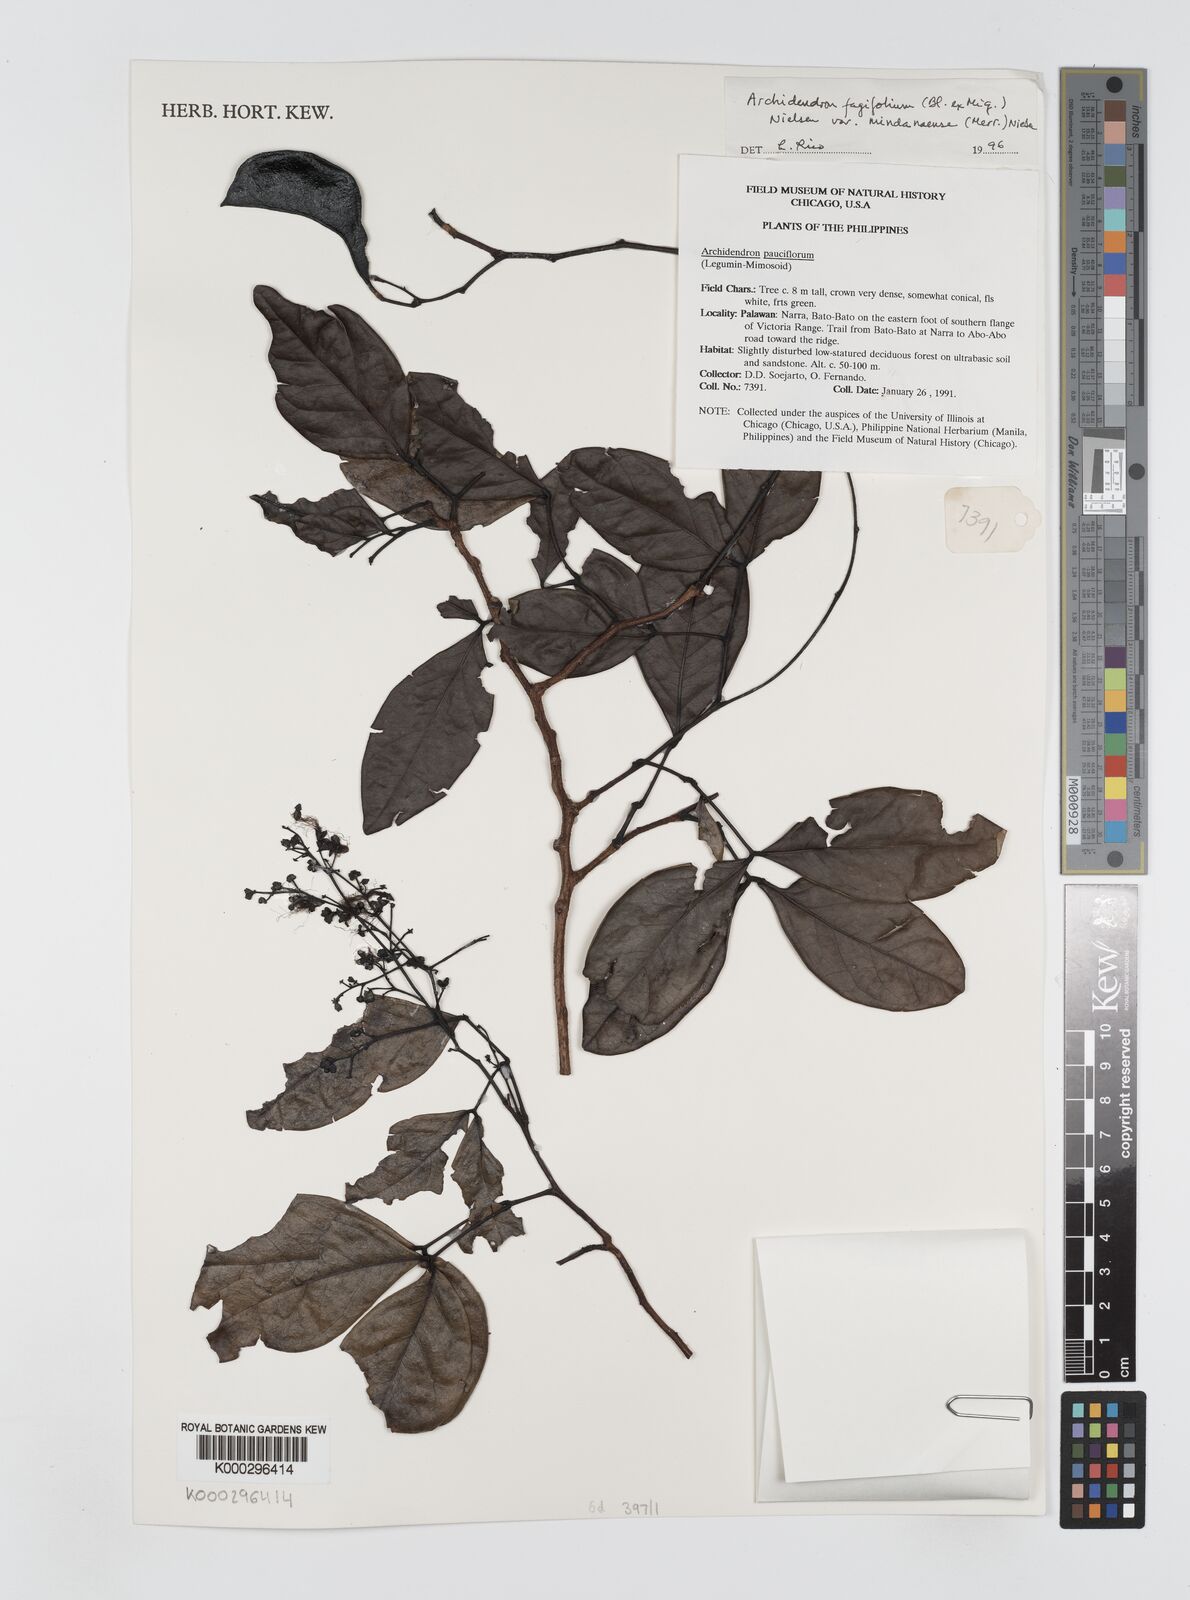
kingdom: Plantae
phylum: Tracheophyta
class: Magnoliopsida
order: Fabales
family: Fabaceae
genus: Archidendron
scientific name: Archidendron fagifolium
